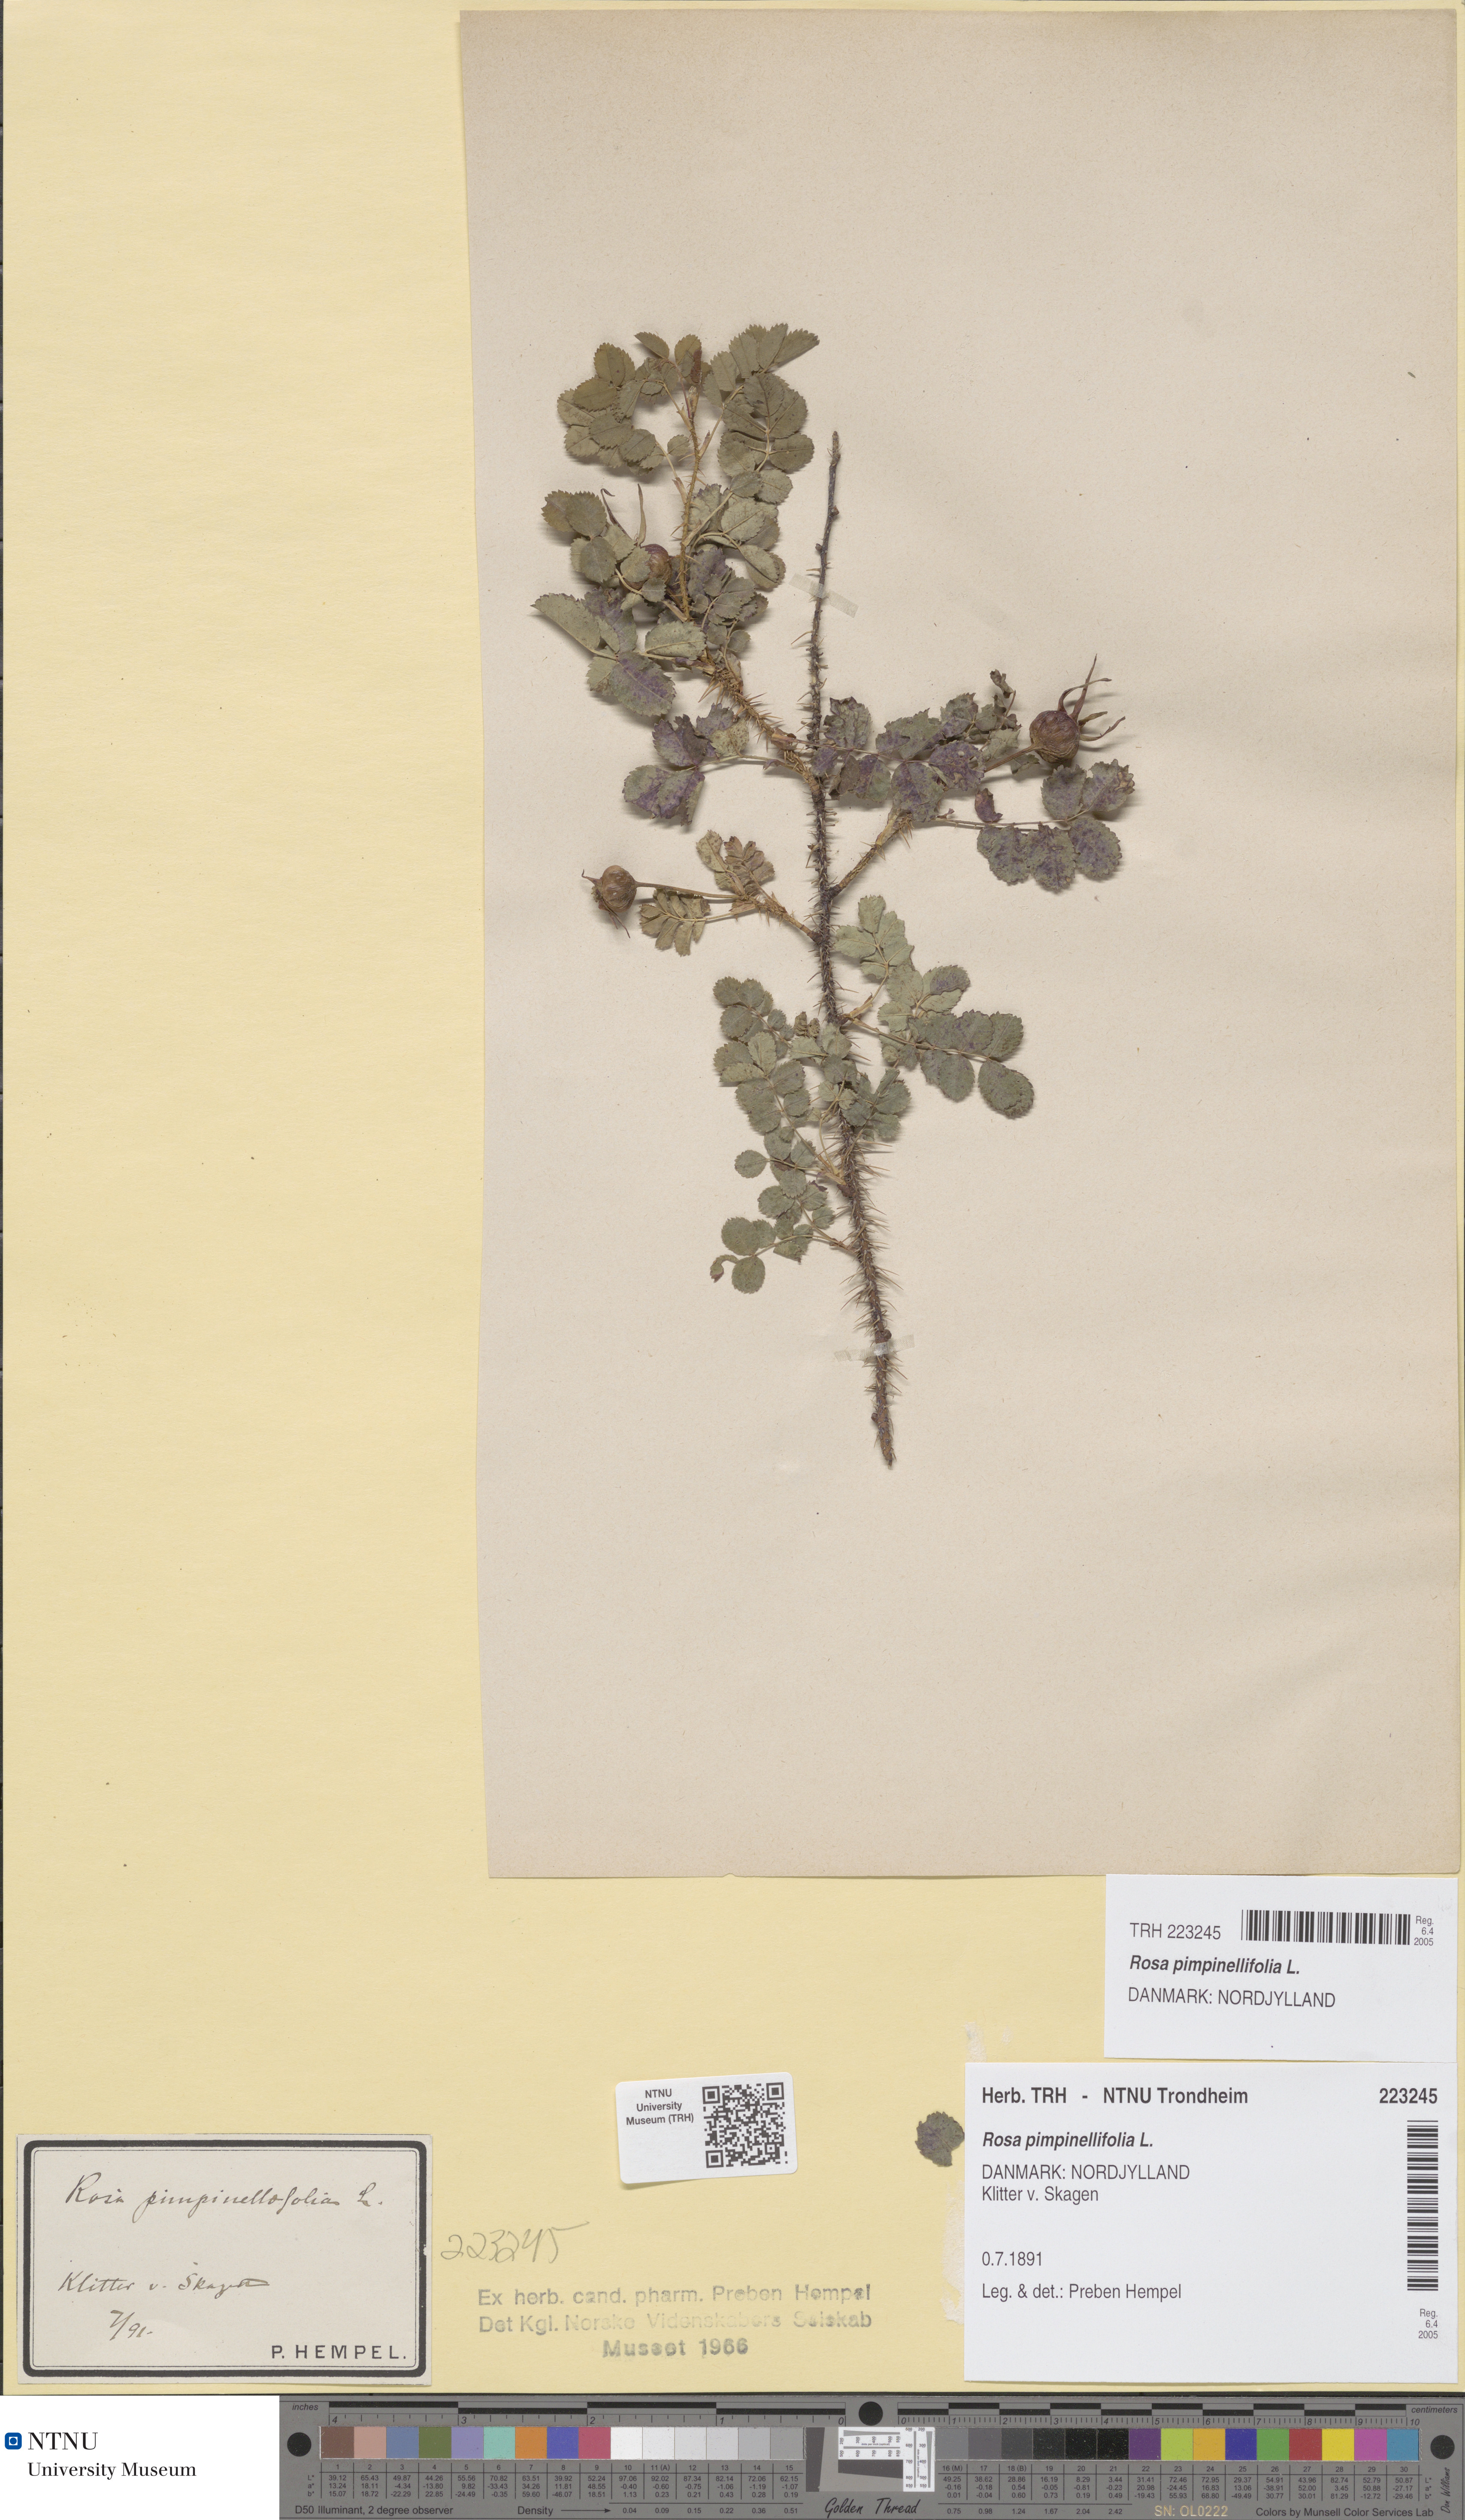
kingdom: Plantae
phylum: Tracheophyta
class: Magnoliopsida
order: Rosales
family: Rosaceae
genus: Rosa
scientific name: Rosa spinosissima
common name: Burnet rose
